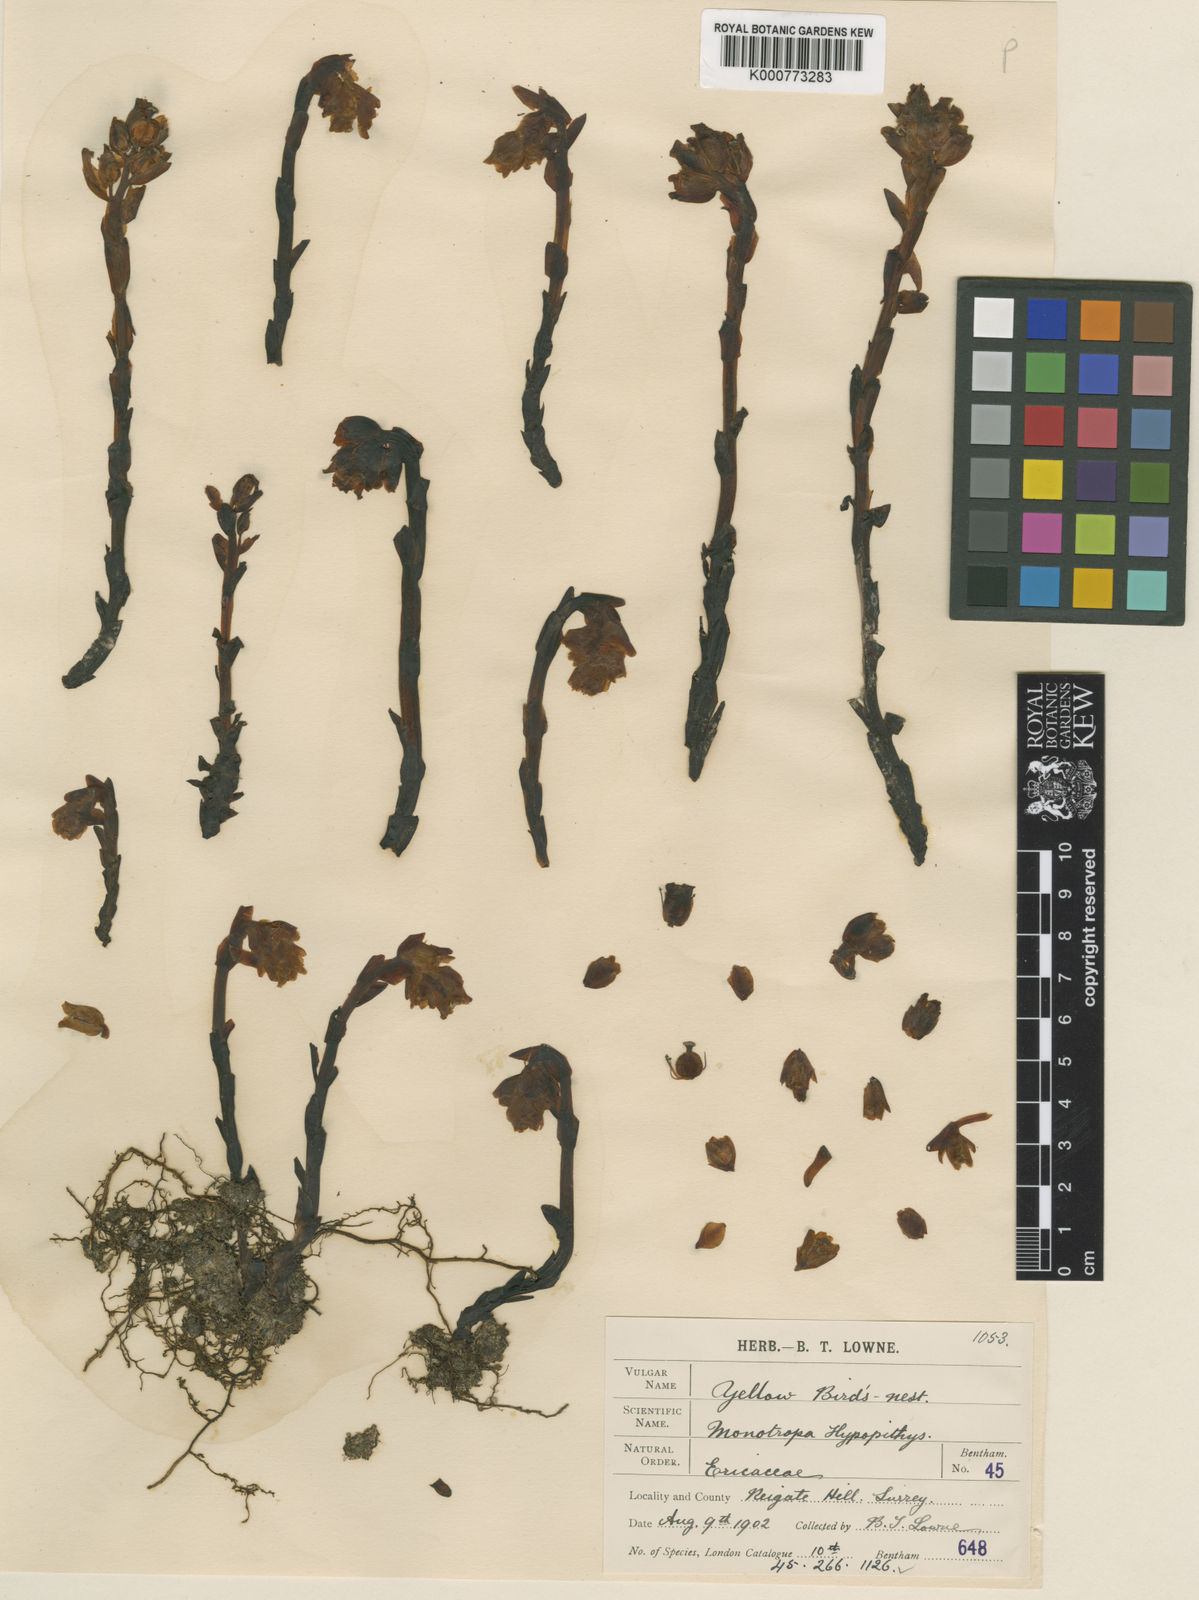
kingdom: Plantae
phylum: Tracheophyta
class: Magnoliopsida
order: Ericales
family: Ericaceae
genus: Monotropa
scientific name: Monotropa
